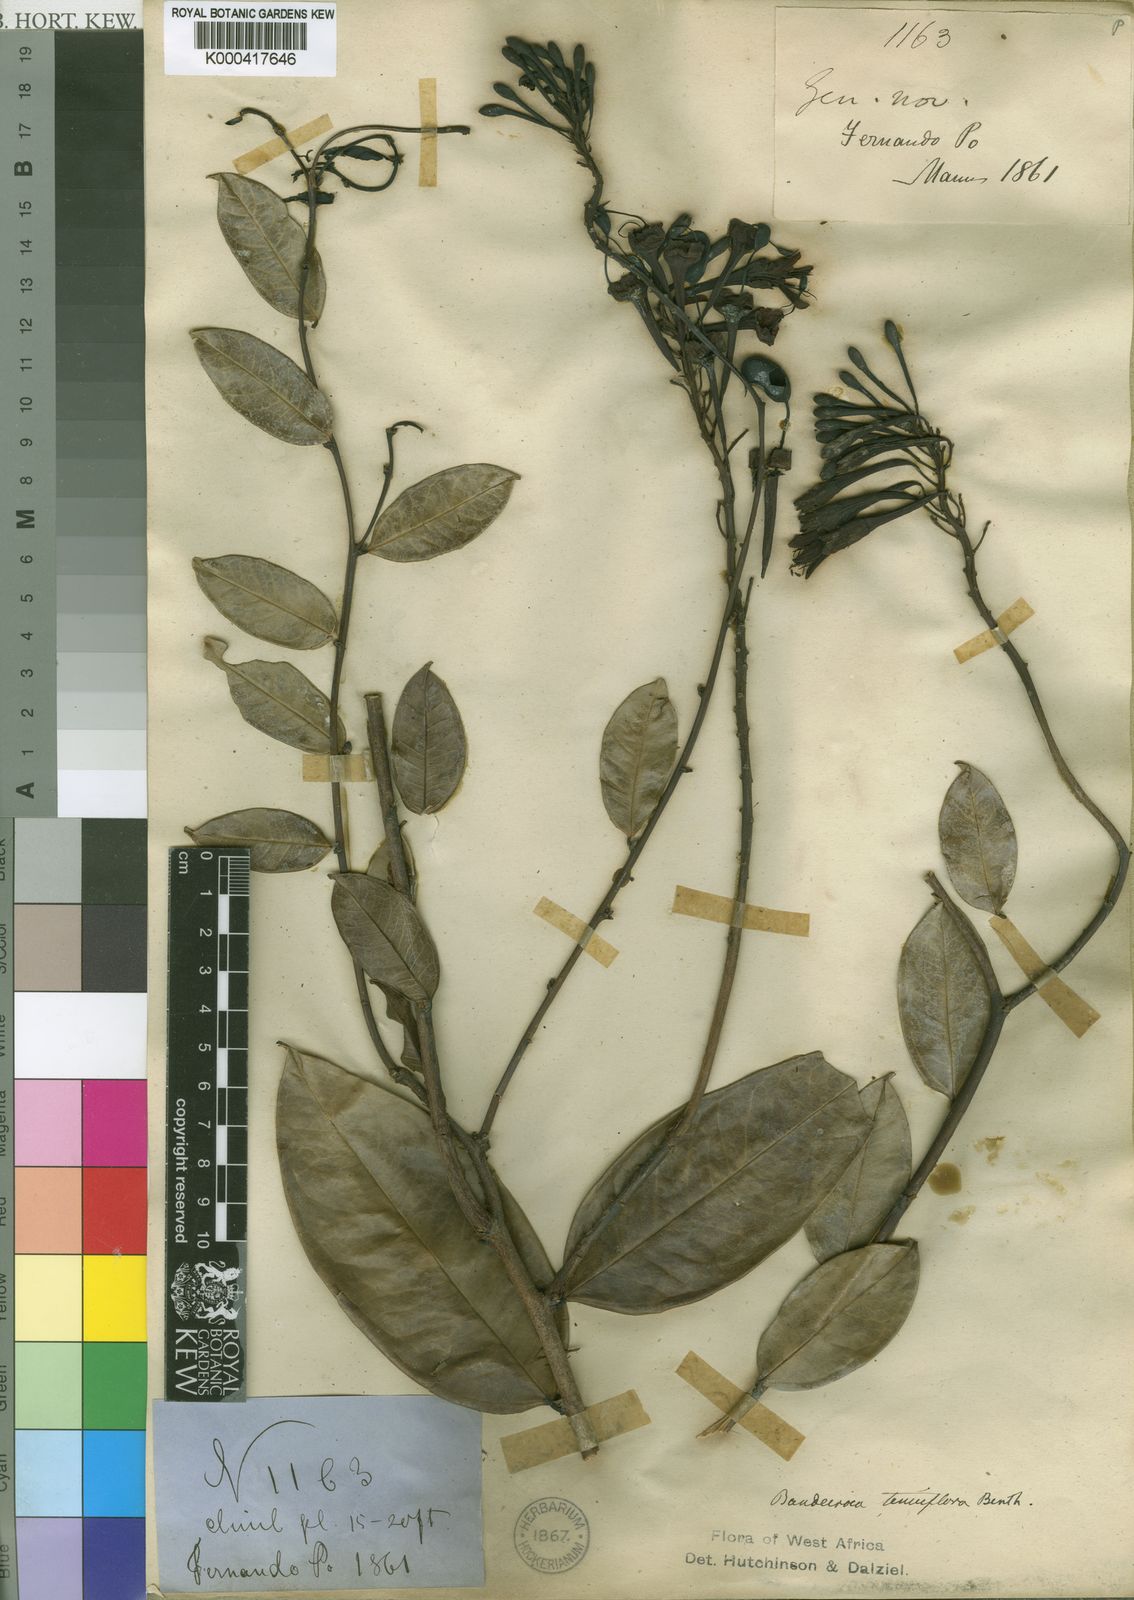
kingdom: Plantae
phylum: Tracheophyta
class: Magnoliopsida
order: Fabales
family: Fabaceae
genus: Griffonia
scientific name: Griffonia physocarpa
